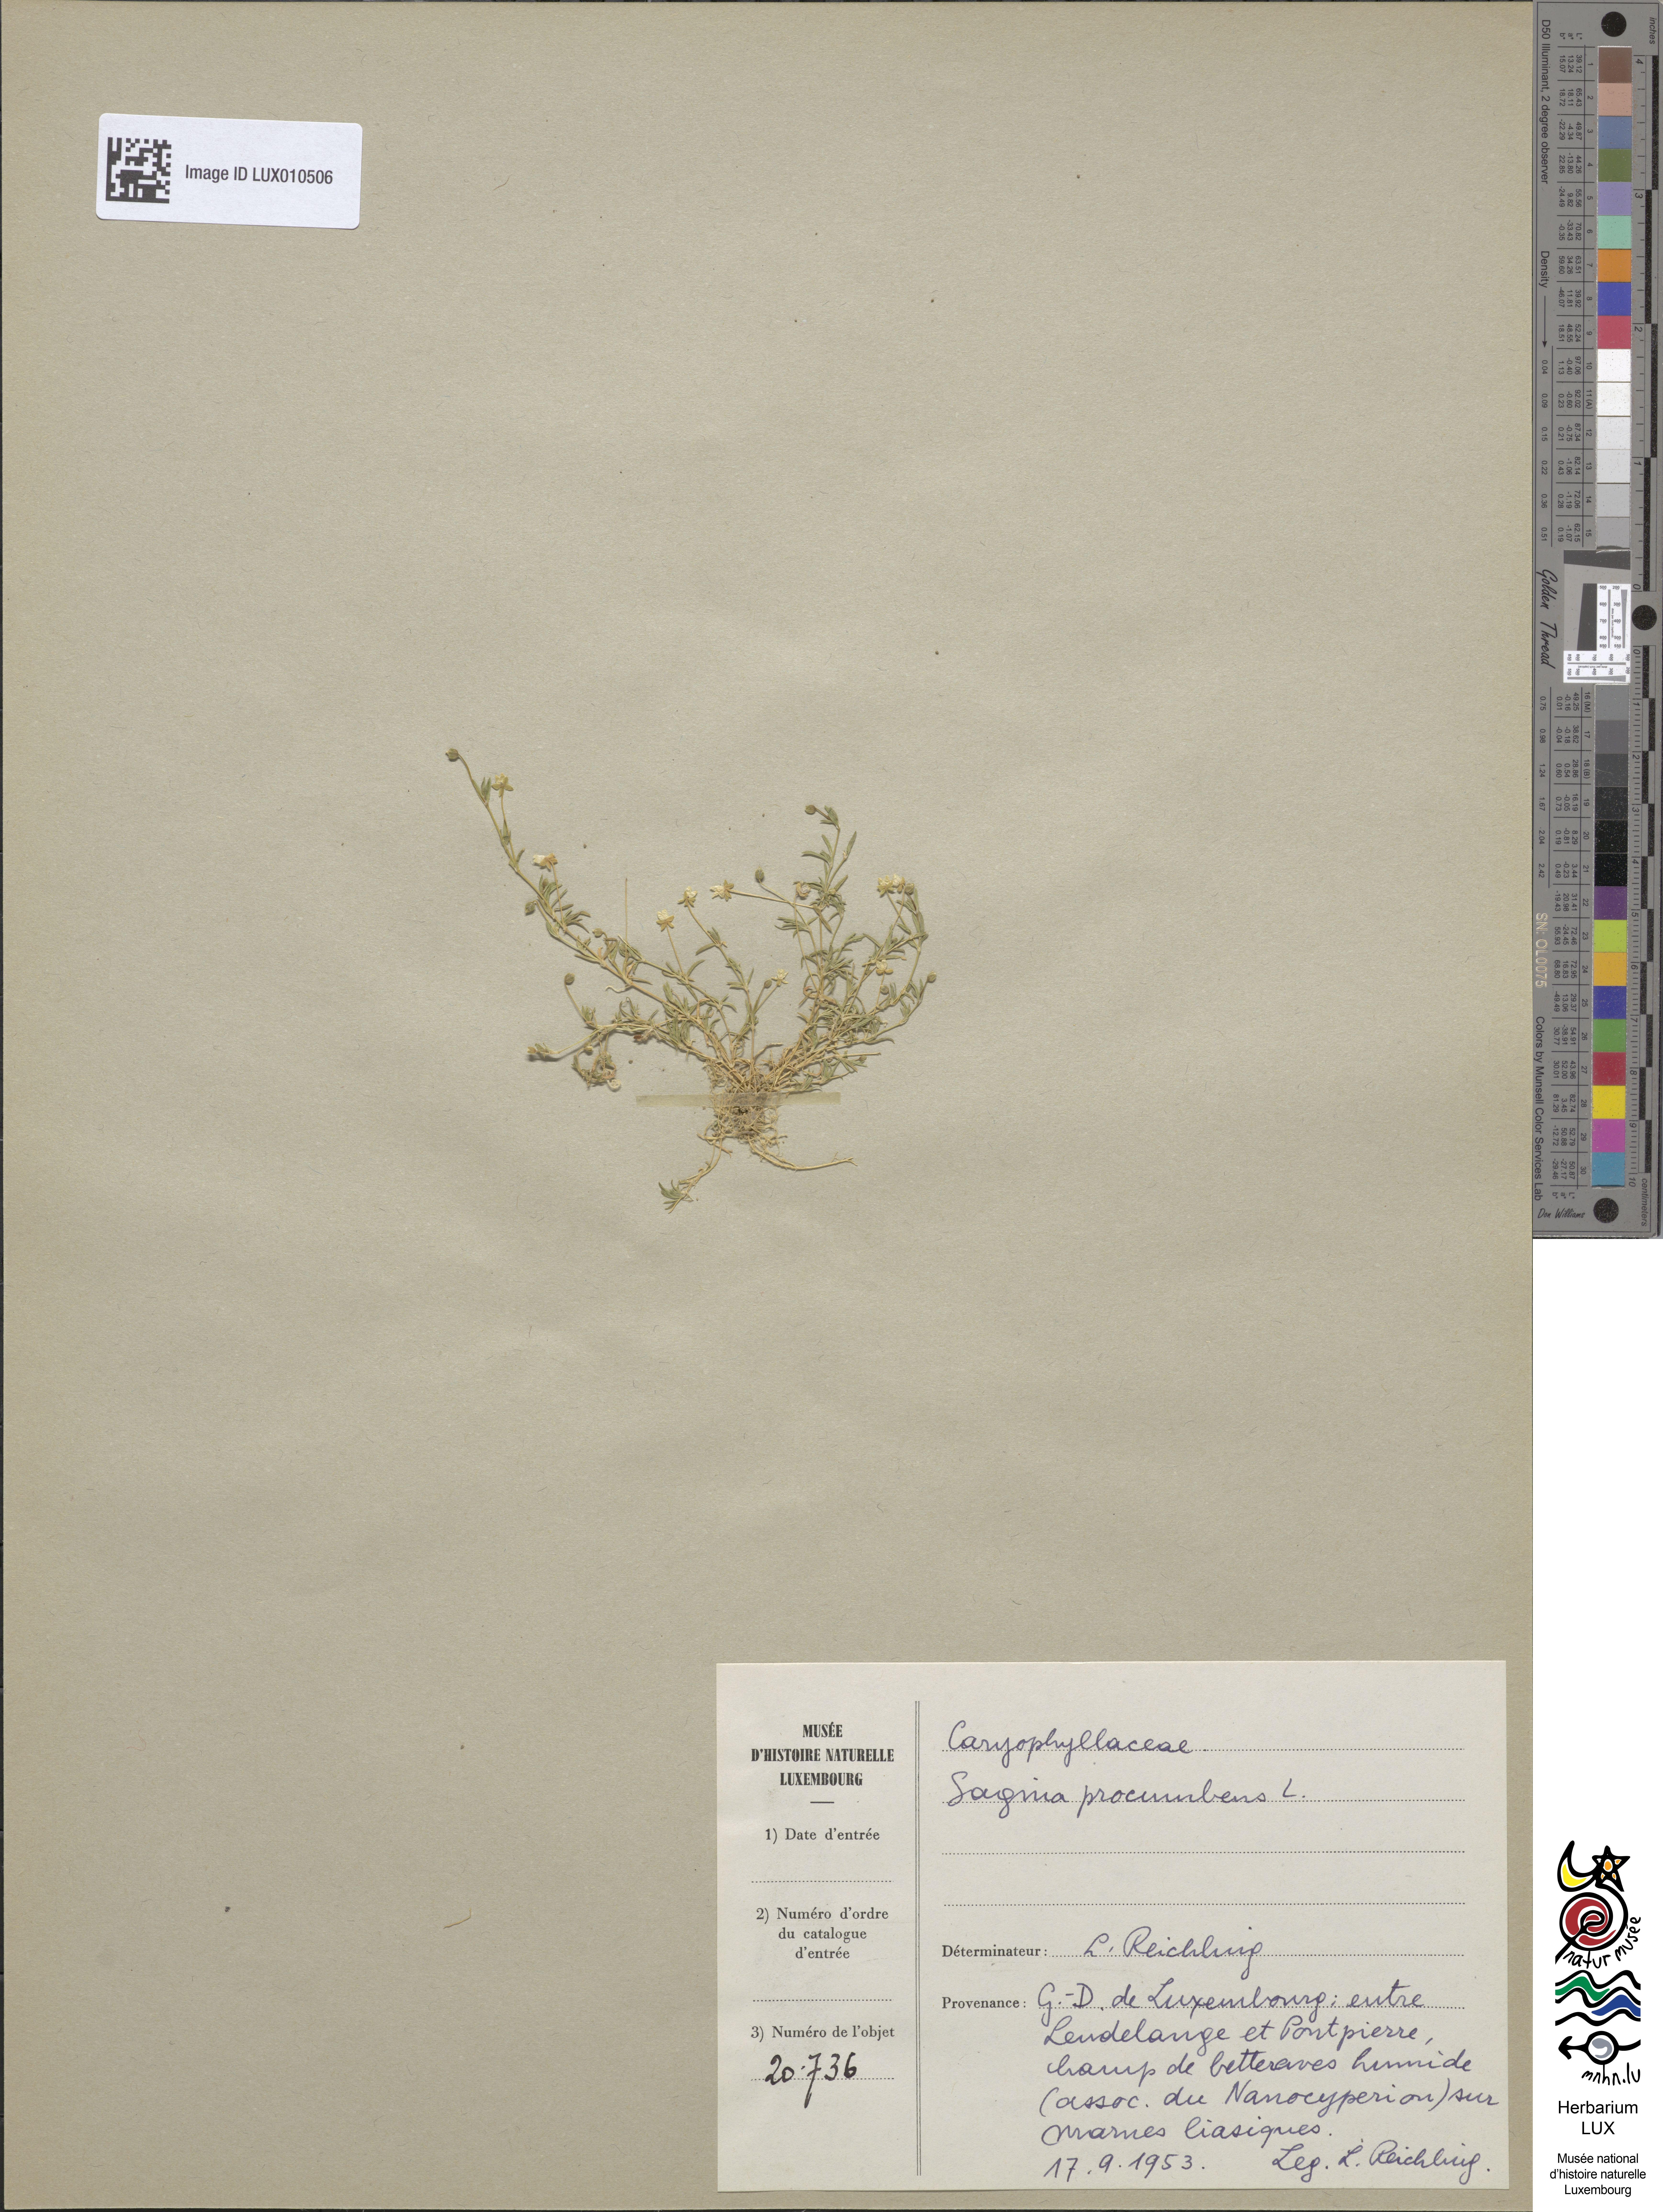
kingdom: Plantae
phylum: Tracheophyta
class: Magnoliopsida
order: Caryophyllales
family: Caryophyllaceae
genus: Sagina
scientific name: Sagina procumbens
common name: Procumbent pearlwort
